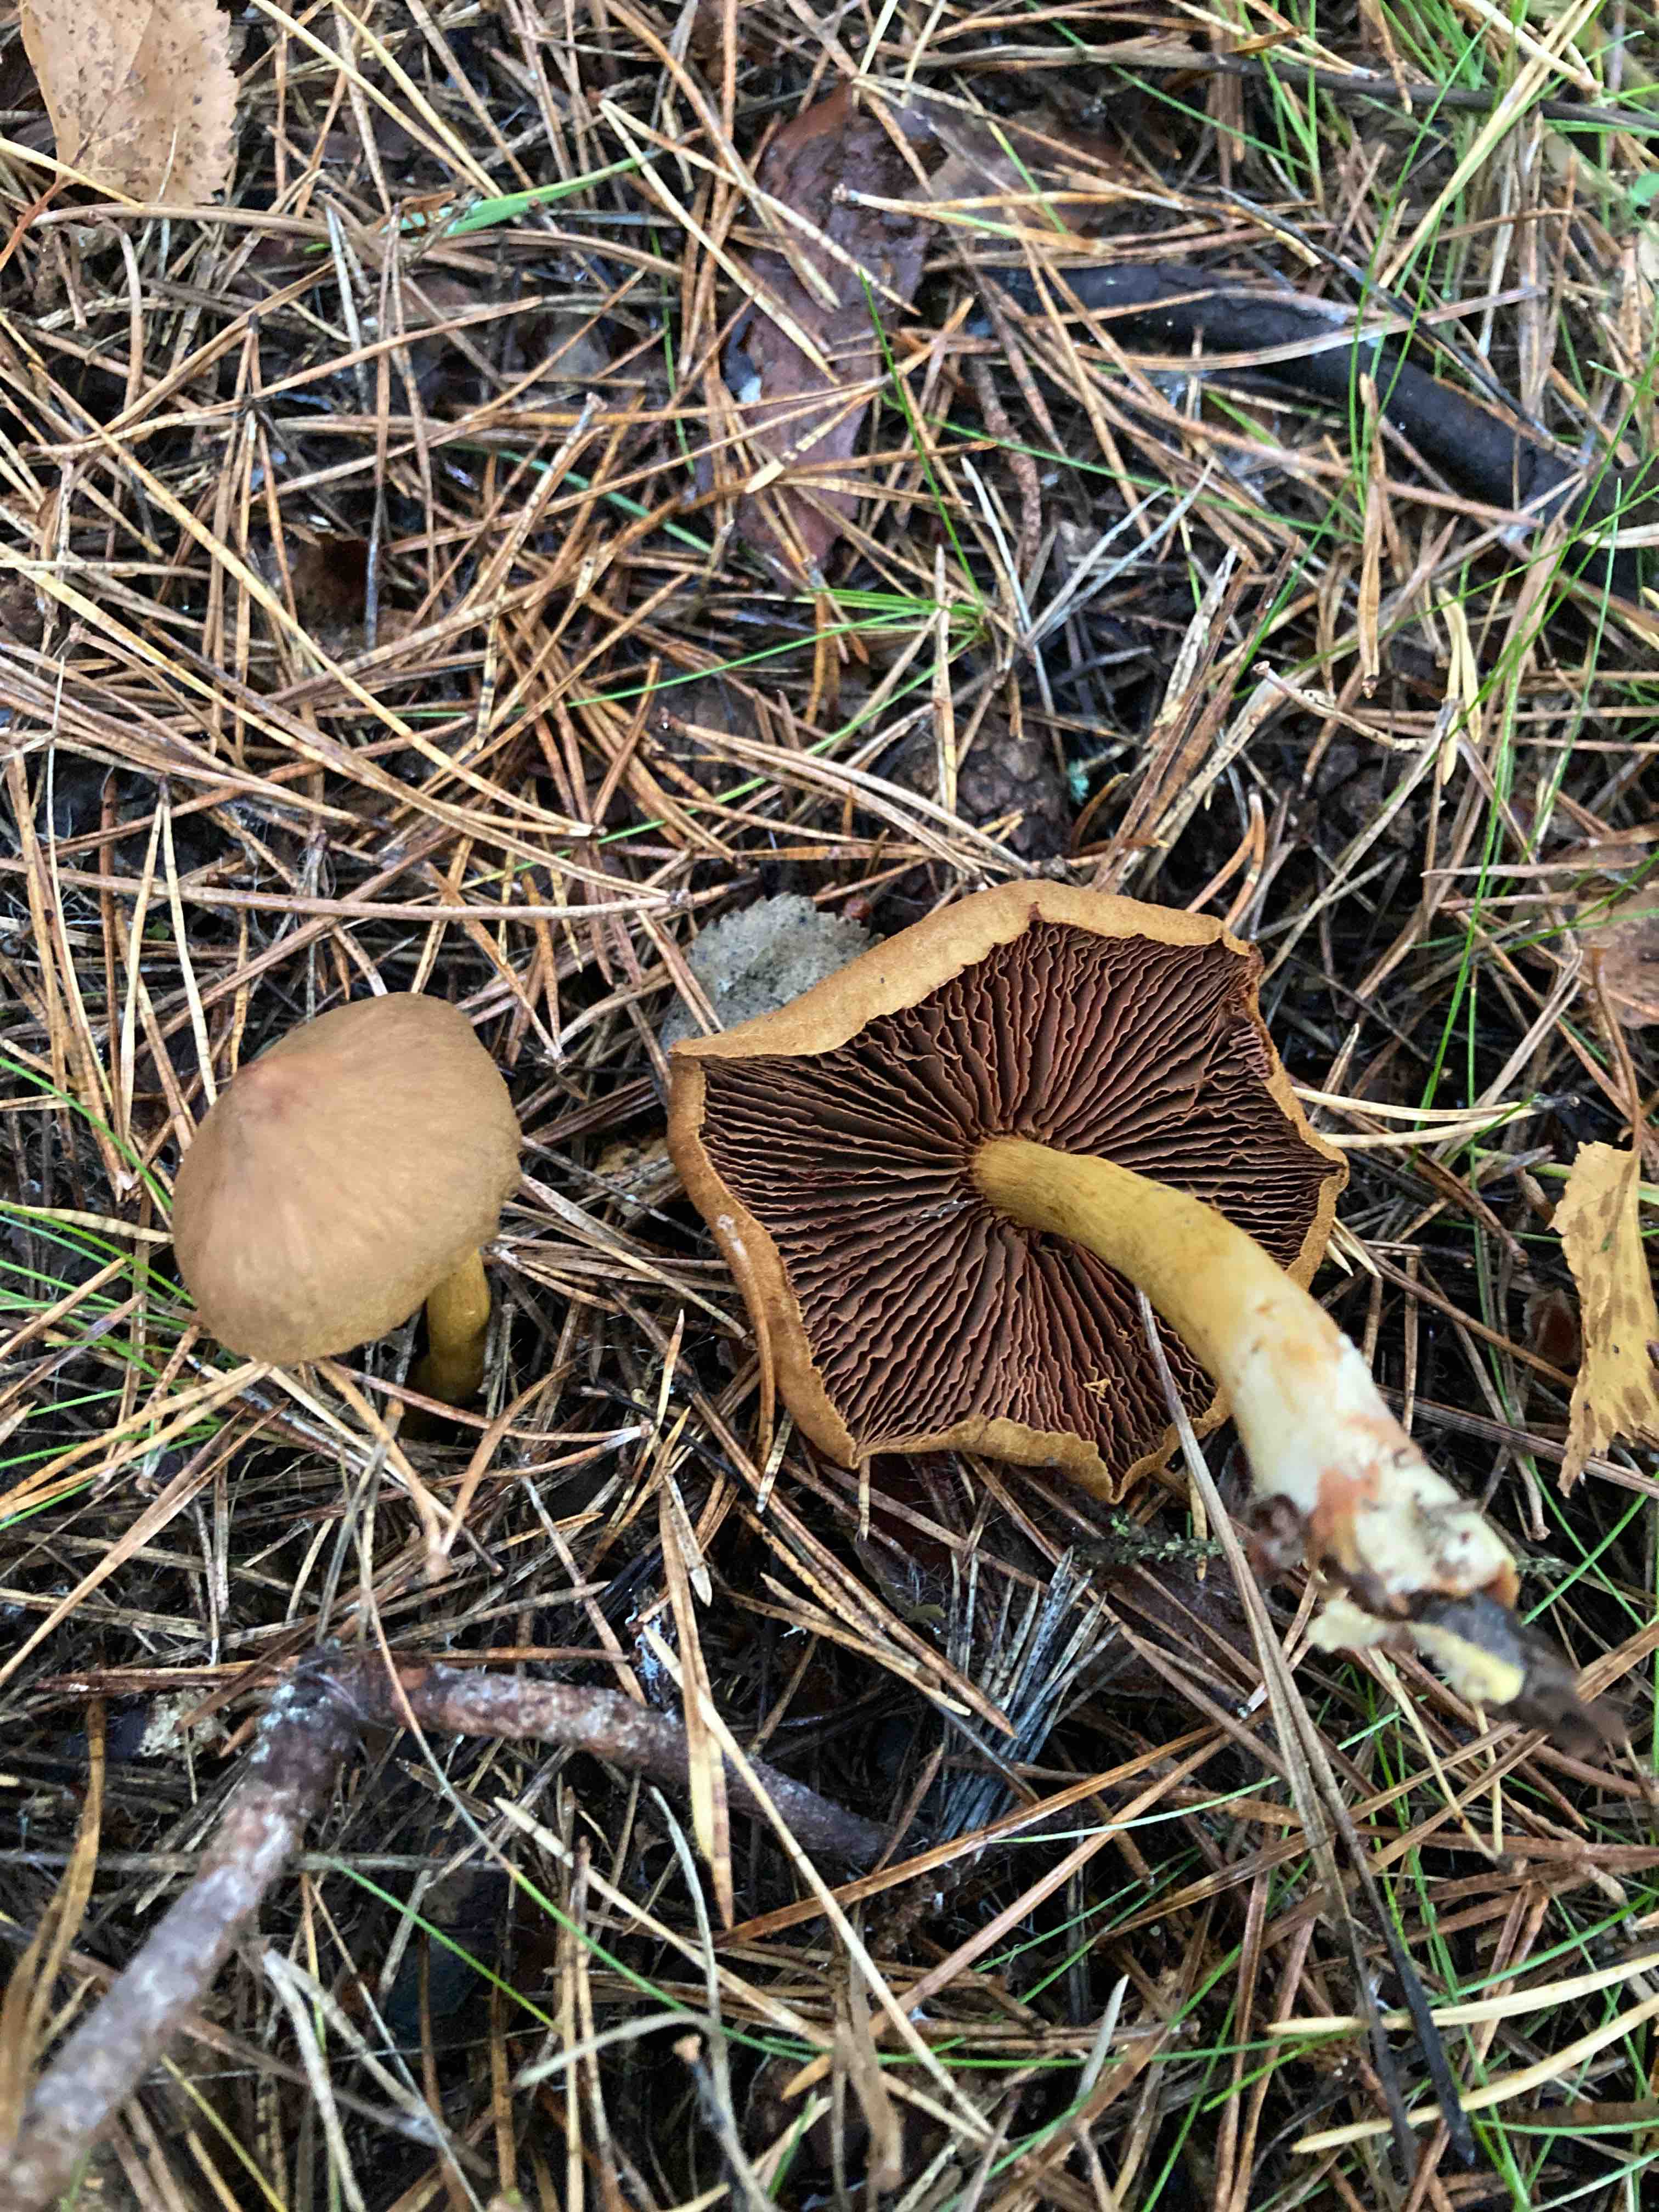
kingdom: Fungi
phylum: Basidiomycota
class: Agaricomycetes
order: Agaricales
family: Cortinariaceae
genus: Cortinarius
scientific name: Cortinarius
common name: cinnoberbladet slørhat
